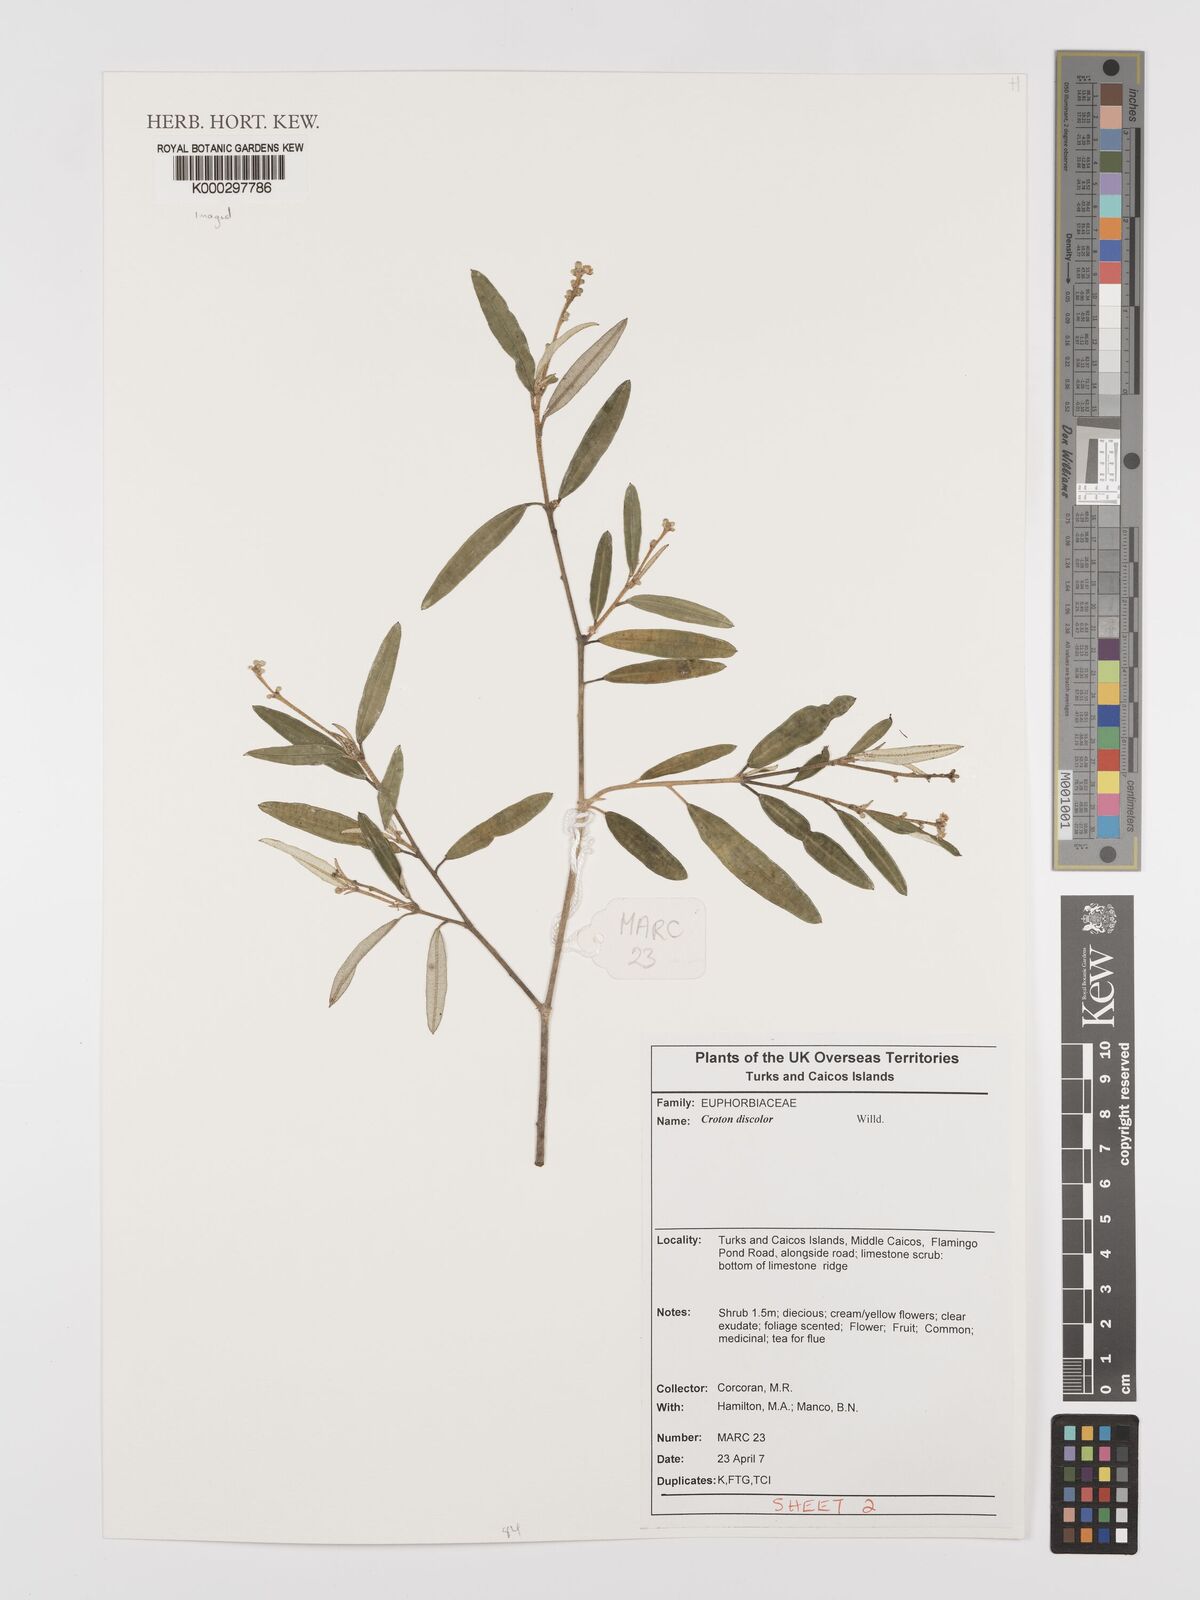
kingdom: Plantae
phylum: Tracheophyta
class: Magnoliopsida
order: Malpighiales
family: Euphorbiaceae
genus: Croton
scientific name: Croton
